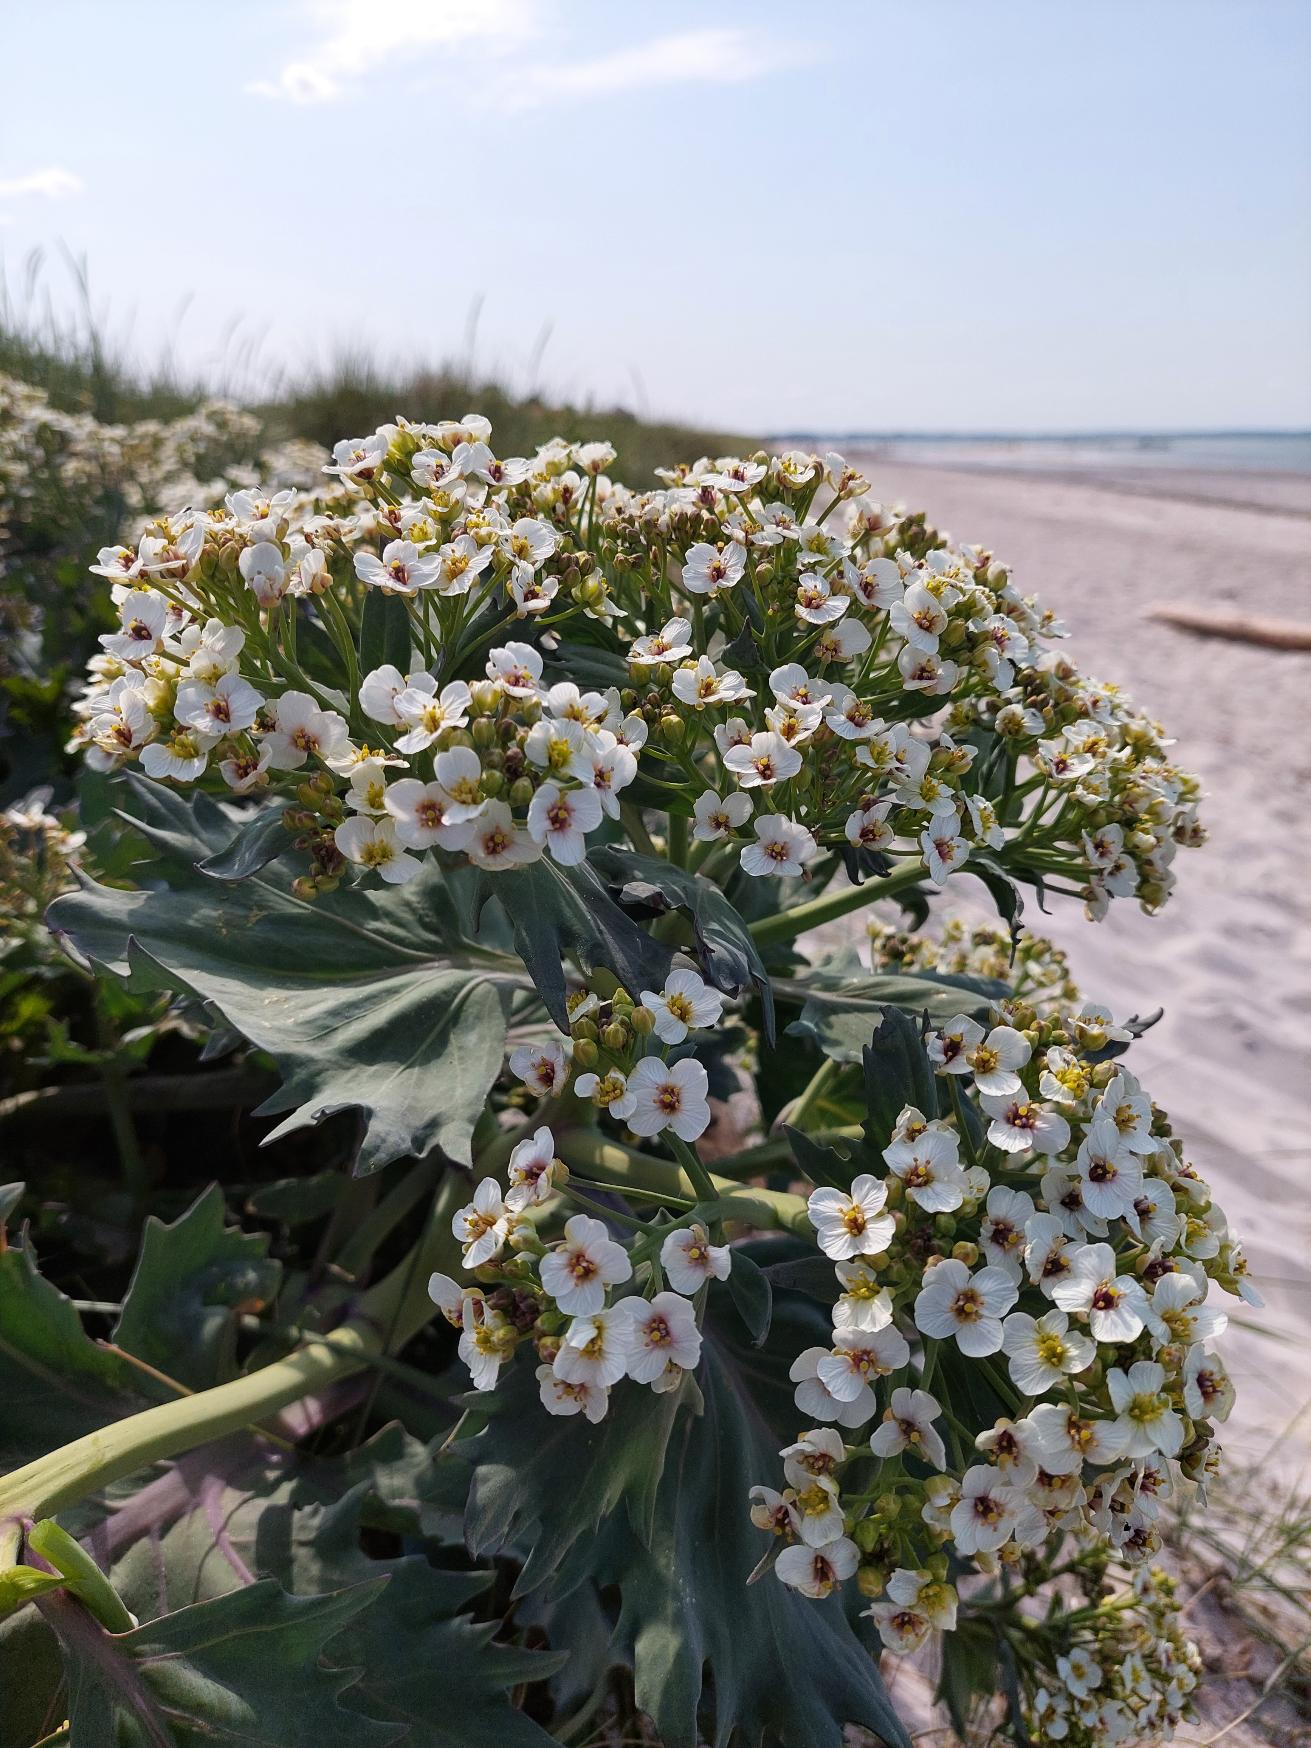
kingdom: Plantae
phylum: Tracheophyta
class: Magnoliopsida
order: Brassicales
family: Brassicaceae
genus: Crambe
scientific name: Crambe maritima
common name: Strandkål
